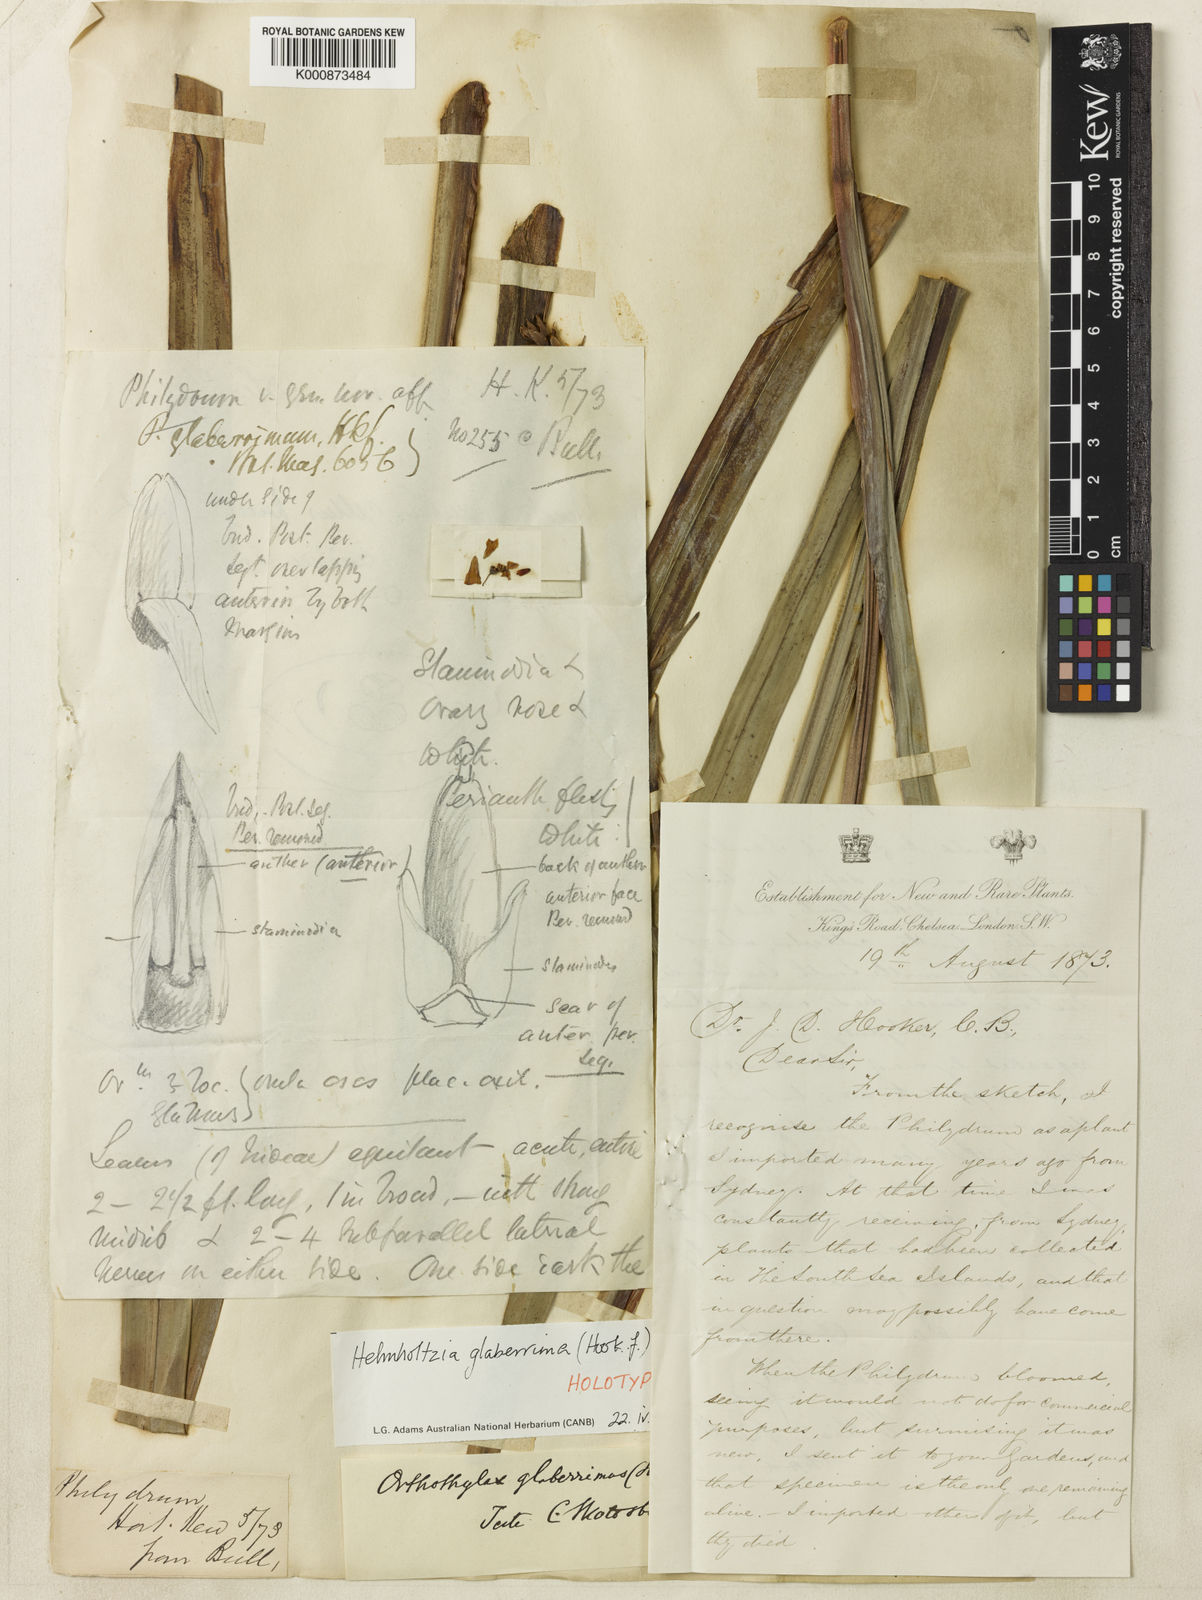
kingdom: Plantae
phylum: Tracheophyta
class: Liliopsida
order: Commelinales
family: Philydraceae
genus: Helmholtzia
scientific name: Helmholtzia glaberrima
